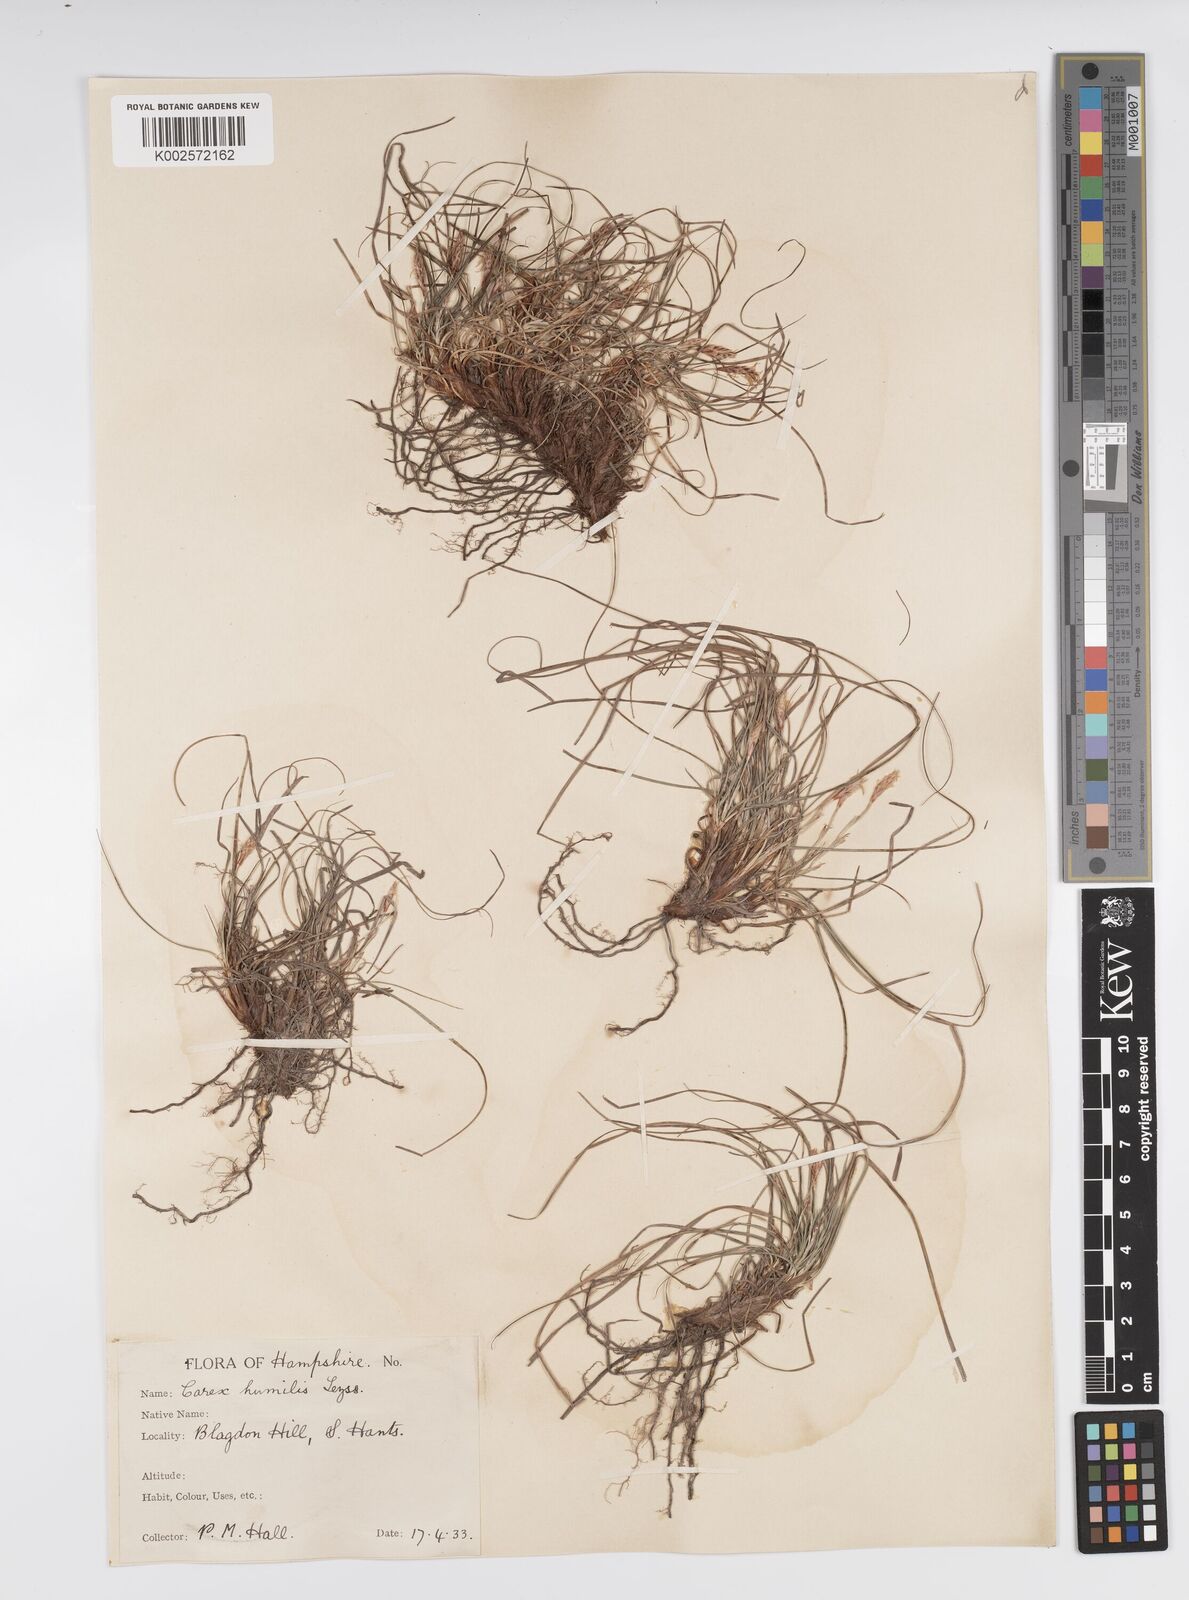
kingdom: Plantae
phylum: Tracheophyta
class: Liliopsida
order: Poales
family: Cyperaceae
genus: Carex
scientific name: Carex cespitosa
